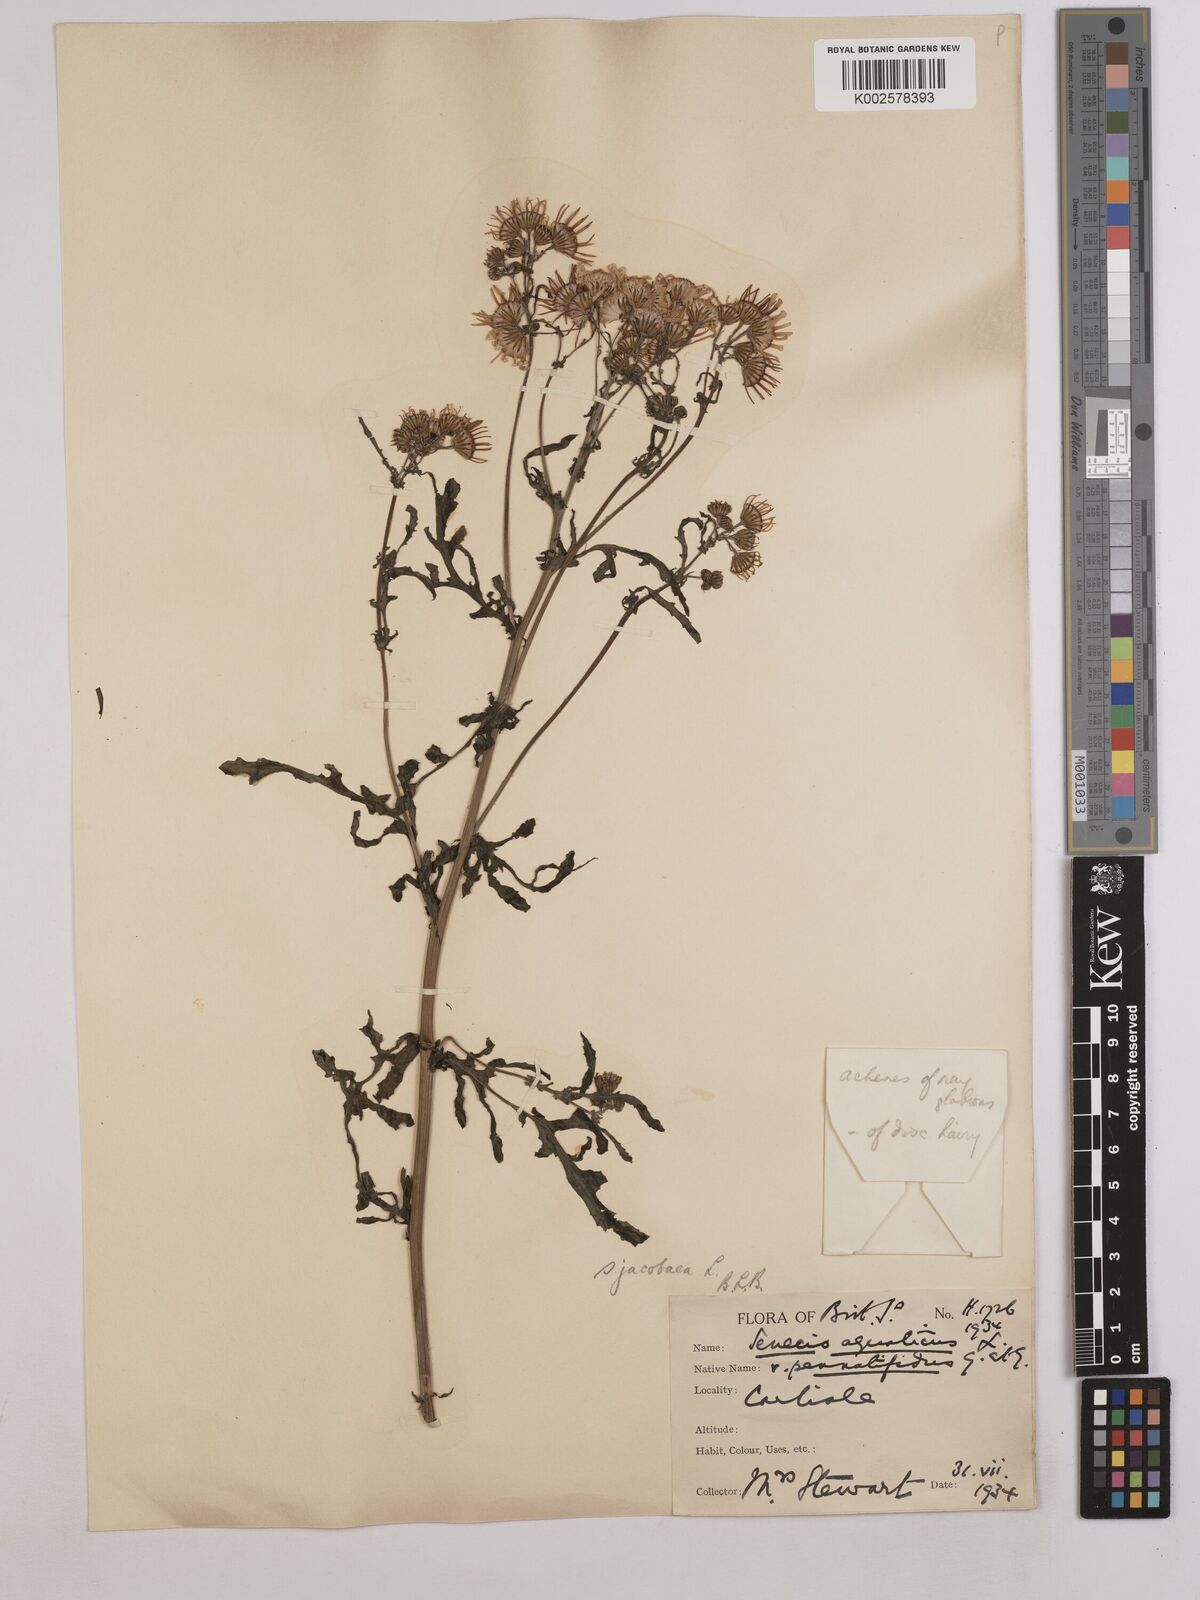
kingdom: Plantae
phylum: Tracheophyta
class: Magnoliopsida
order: Asterales
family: Asteraceae
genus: Jacobaea
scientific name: Jacobaea vulgaris
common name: Stinking willie
